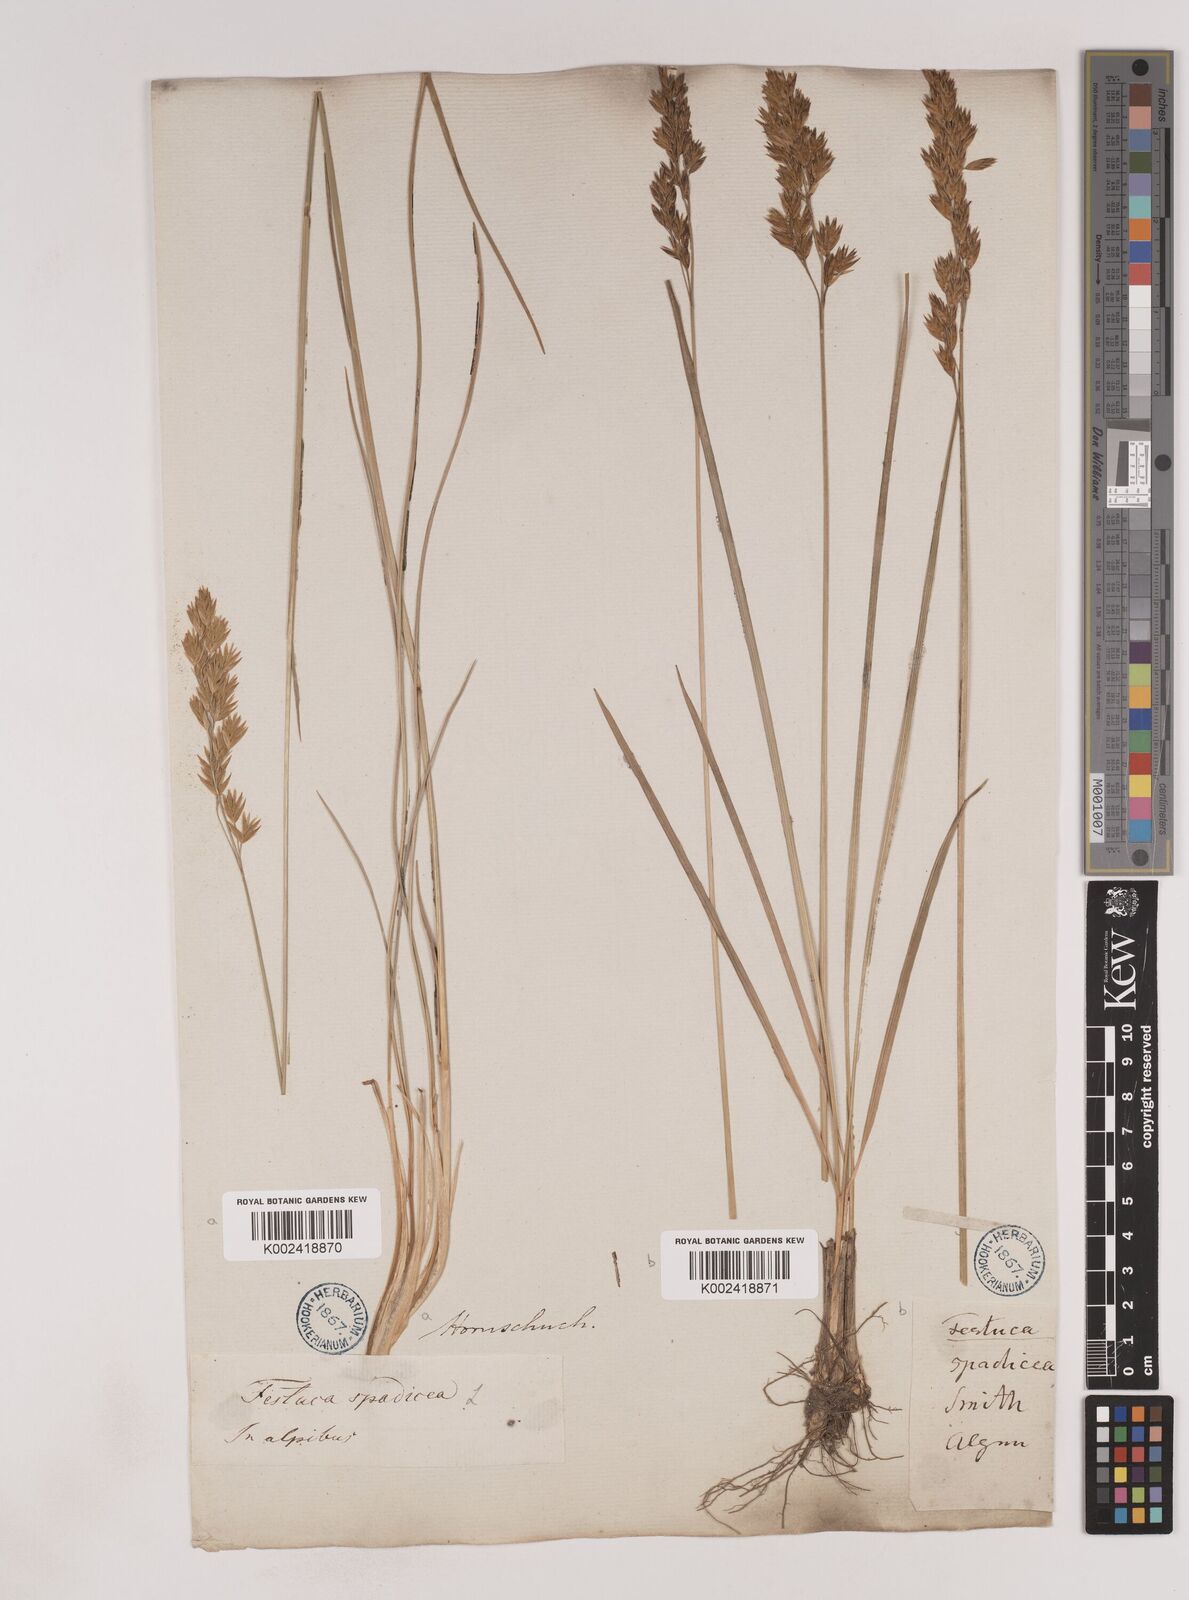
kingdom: Plantae
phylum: Tracheophyta
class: Liliopsida
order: Poales
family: Poaceae
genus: Patzkea
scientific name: Patzkea paniculata
